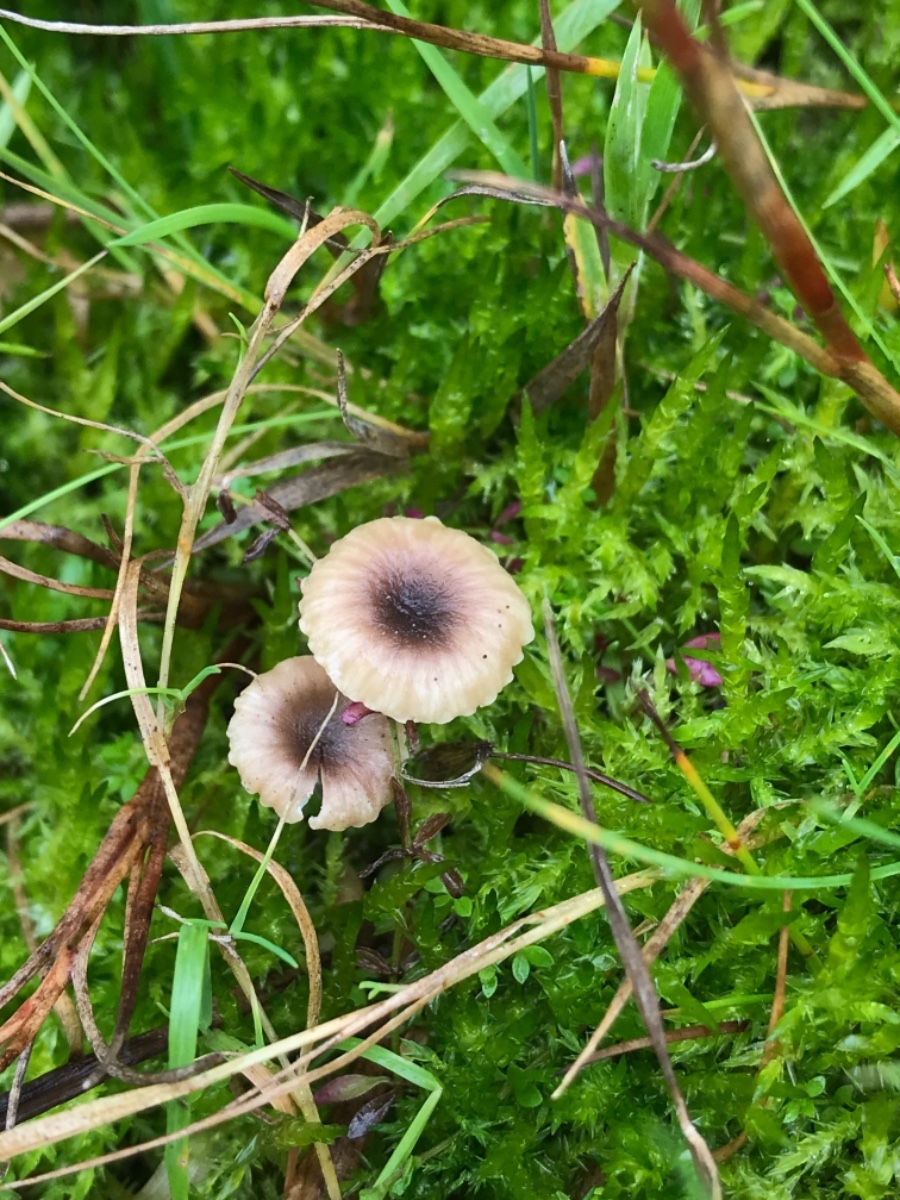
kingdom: Fungi
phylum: Basidiomycota
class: Agaricomycetes
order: Hymenochaetales
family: Rickenellaceae
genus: Rickenella
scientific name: Rickenella swartzii
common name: finstokket mosnavlehat
